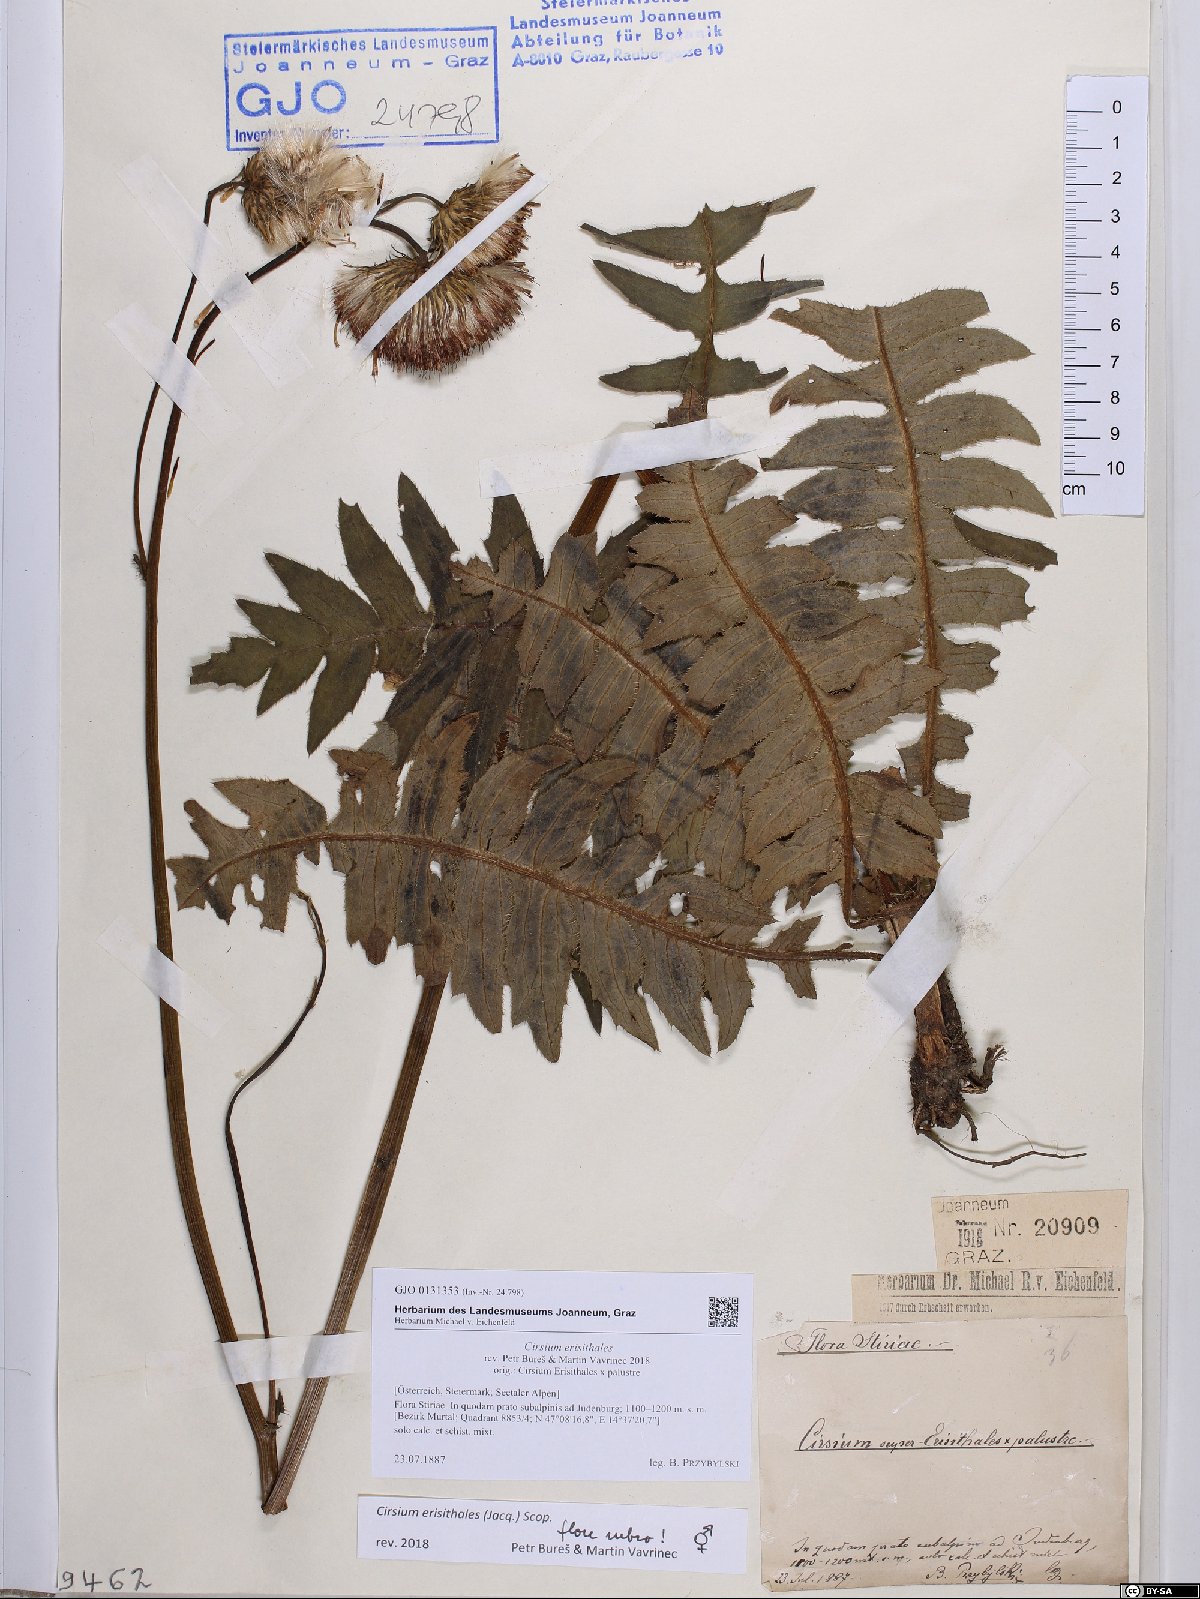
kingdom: Plantae
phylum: Tracheophyta
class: Magnoliopsida
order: Asterales
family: Asteraceae
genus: Cirsium
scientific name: Cirsium erisithales
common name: Yellow thistle
